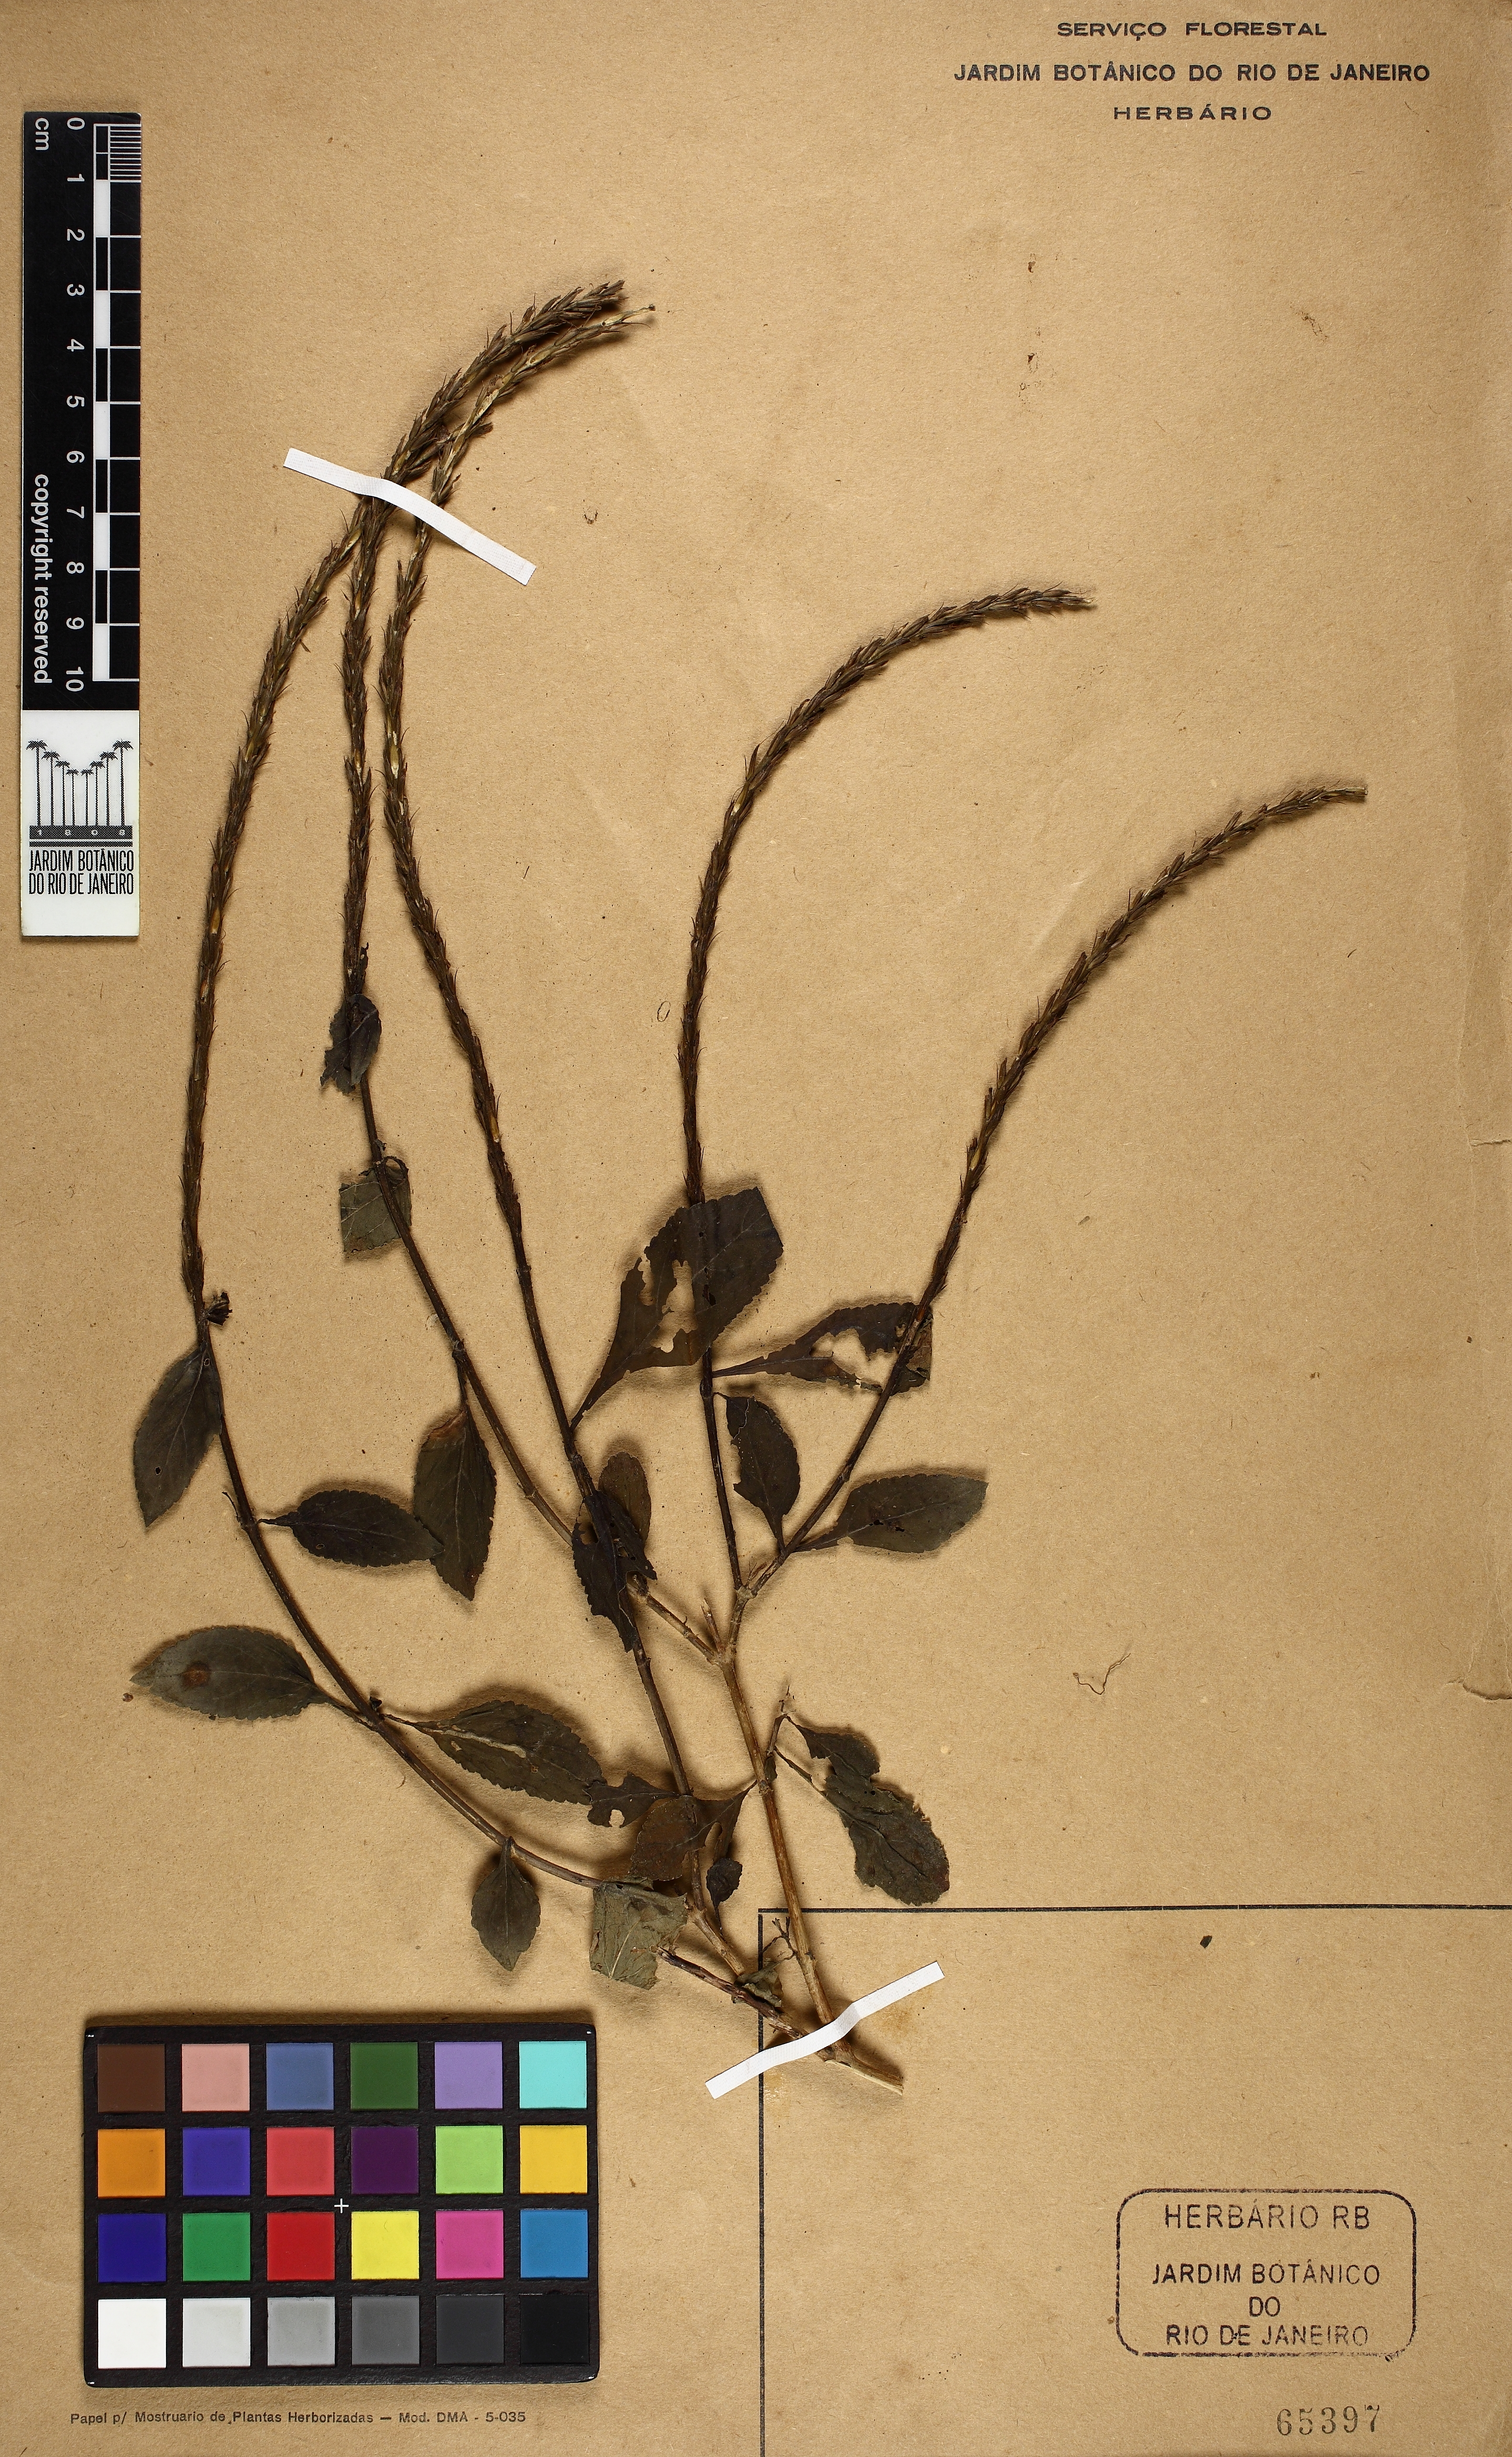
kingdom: Plantae
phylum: Tracheophyta
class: Magnoliopsida
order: Lamiales
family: Verbenaceae
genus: Stachytarpheta
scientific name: Stachytarpheta cayennensis
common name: Cayenne porterweed
